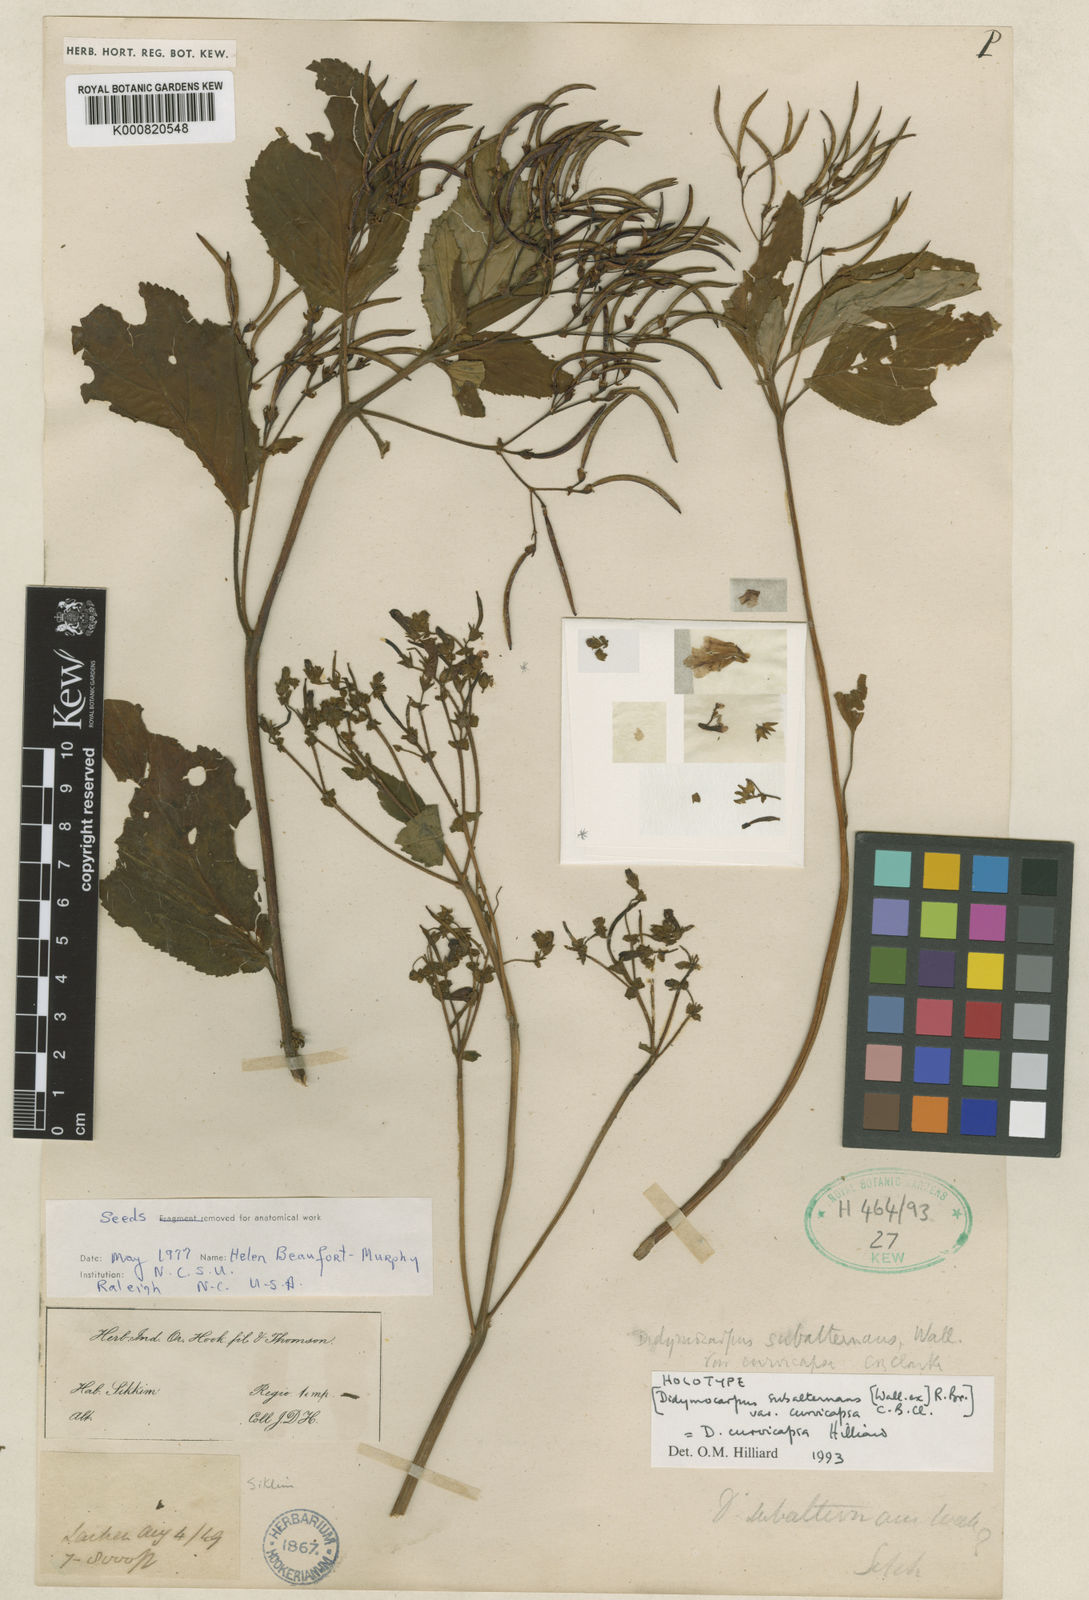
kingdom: Plantae
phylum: Tracheophyta
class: Magnoliopsida
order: Lamiales
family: Gesneriaceae
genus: Didymocarpus
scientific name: Didymocarpus aromaticus
